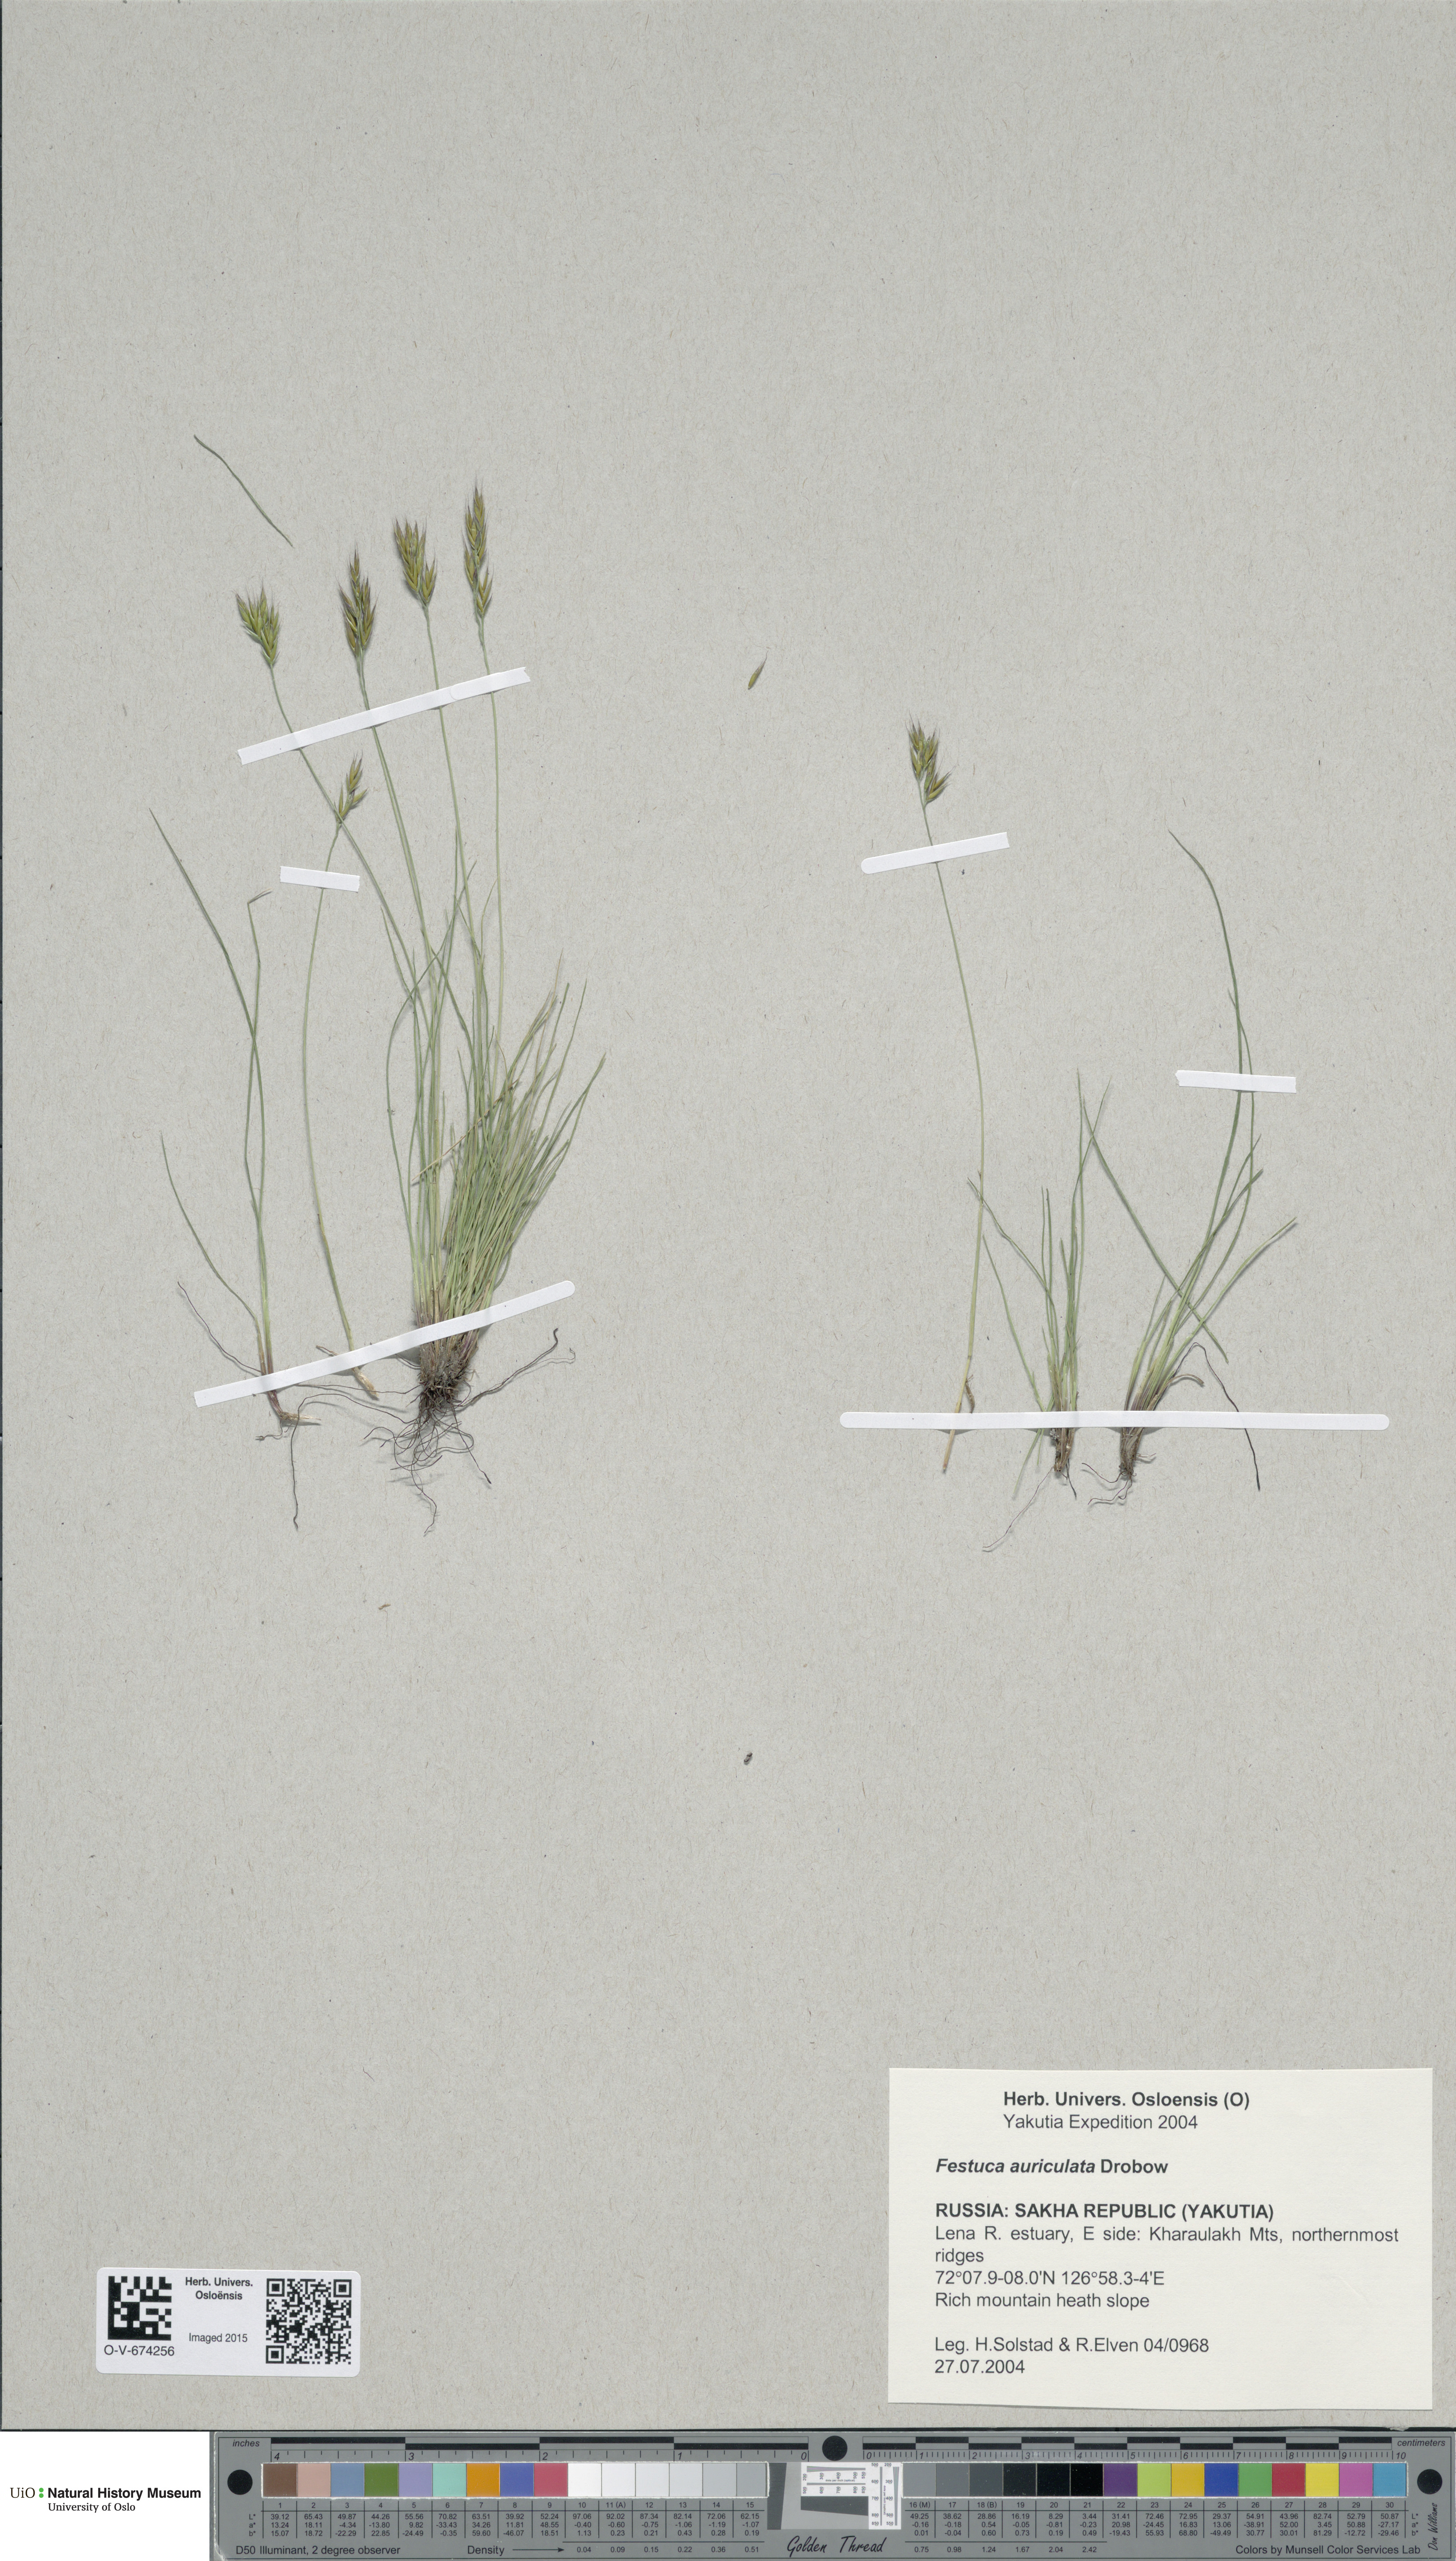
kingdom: Plantae
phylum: Tracheophyta
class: Liliopsida
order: Poales
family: Poaceae
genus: Festuca
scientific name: Festuca auriculata
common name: Eared fescue
